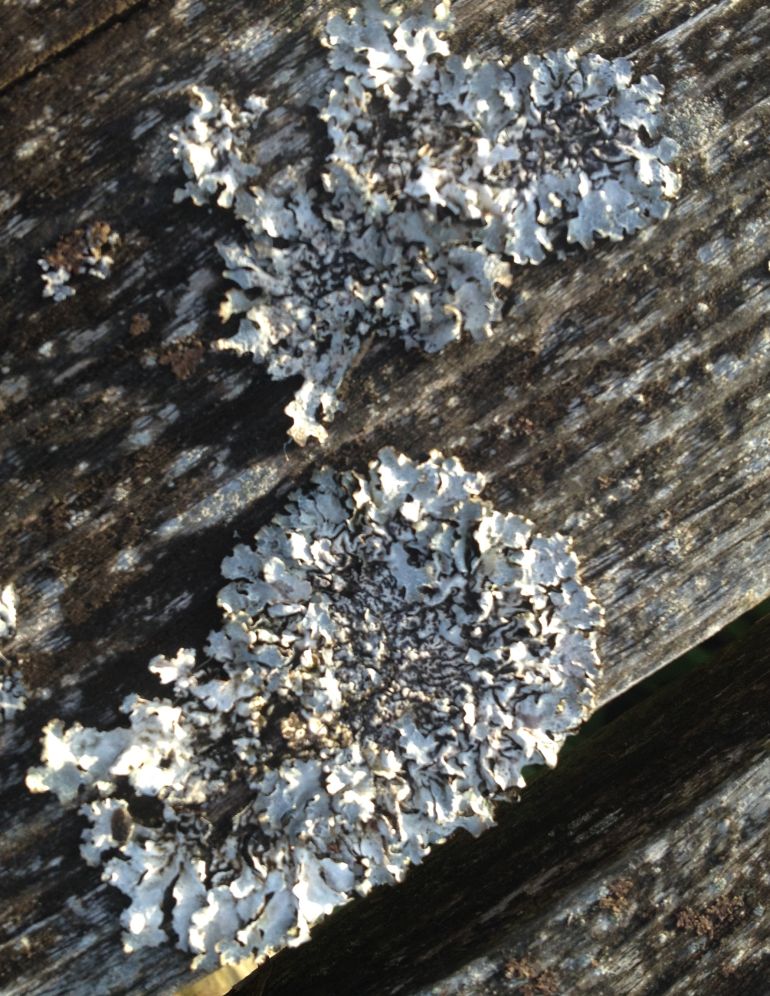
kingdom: Fungi
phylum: Ascomycota
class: Lecanoromycetes
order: Lecanorales
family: Parmeliaceae
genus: Parmelia
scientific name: Parmelia sulcata
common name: rynket skållav
